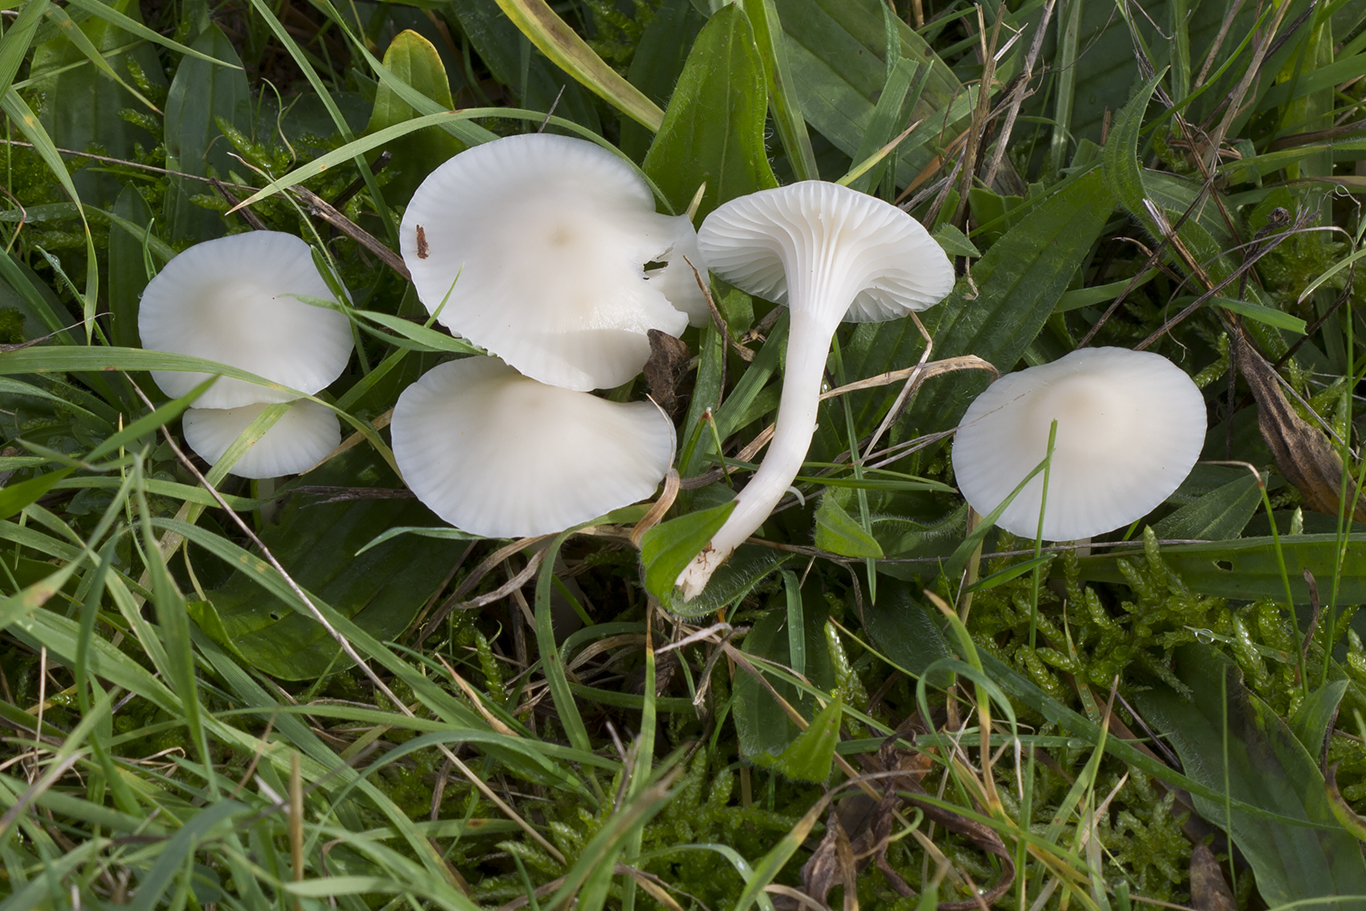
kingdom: Fungi
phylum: Basidiomycota
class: Agaricomycetes
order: Agaricales
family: Hygrophoraceae
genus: Cuphophyllus
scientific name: Cuphophyllus virgineus
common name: snehvid vokshat
